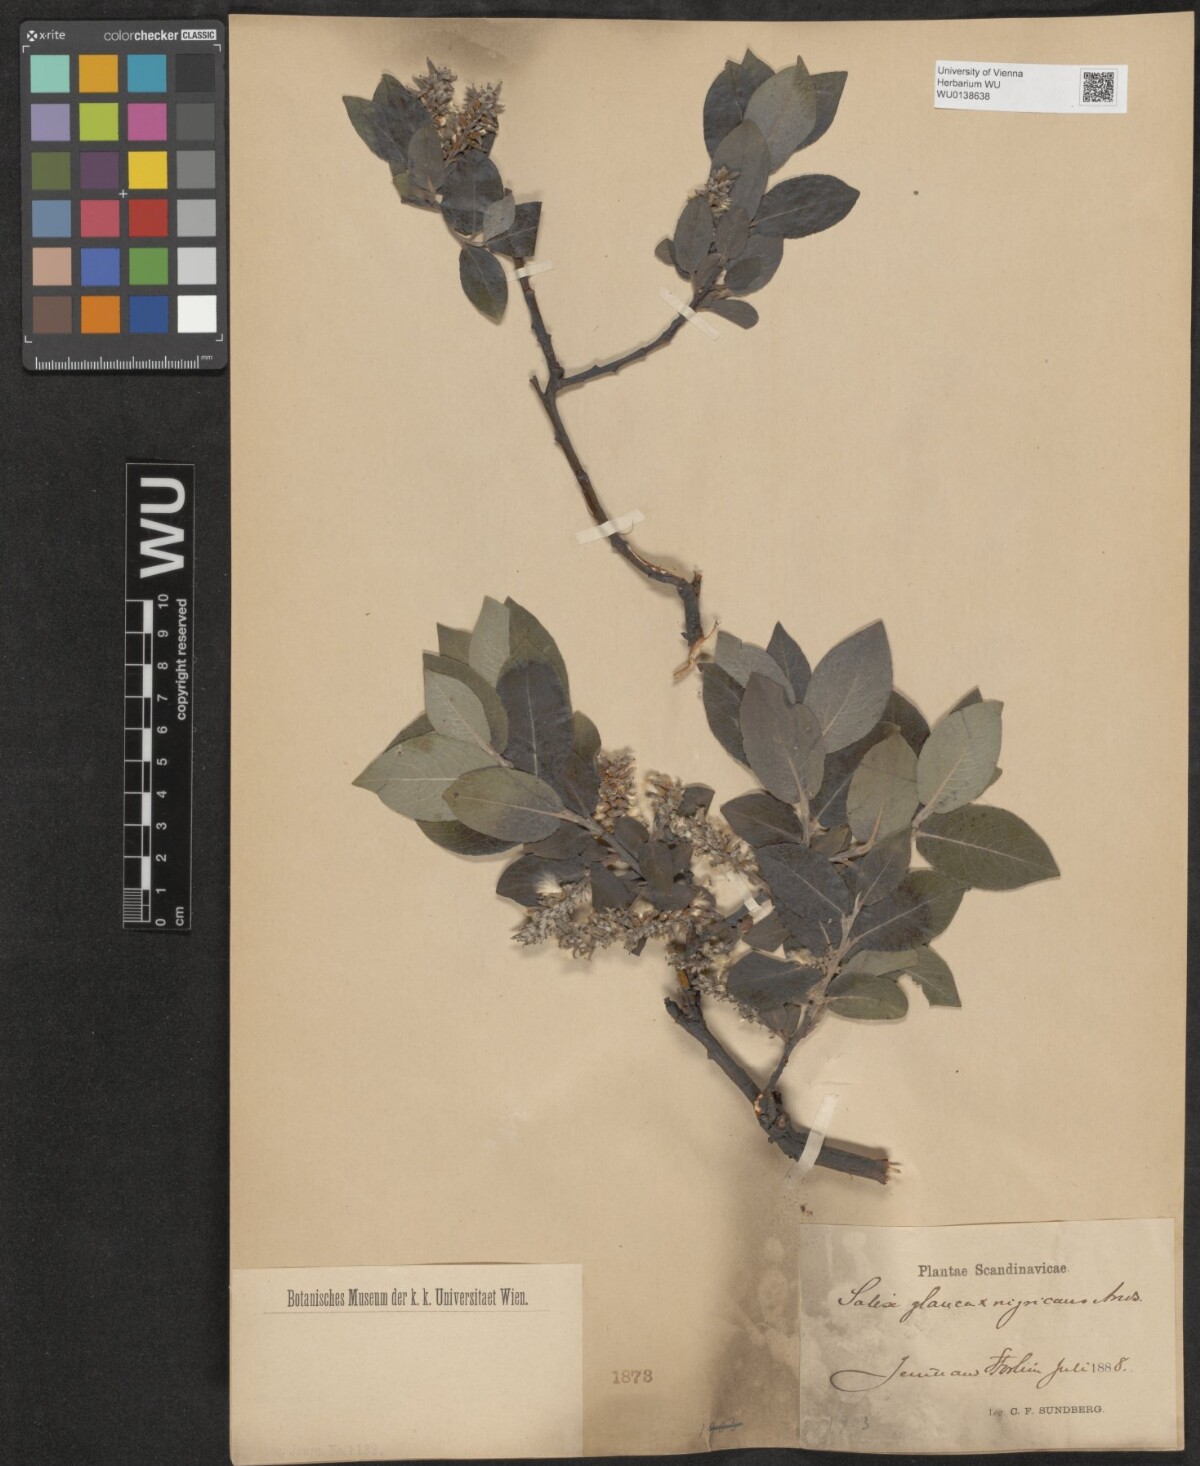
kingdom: Plantae
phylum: Tracheophyta
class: Magnoliopsida
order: Malpighiales
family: Salicaceae
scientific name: Salicaceae
